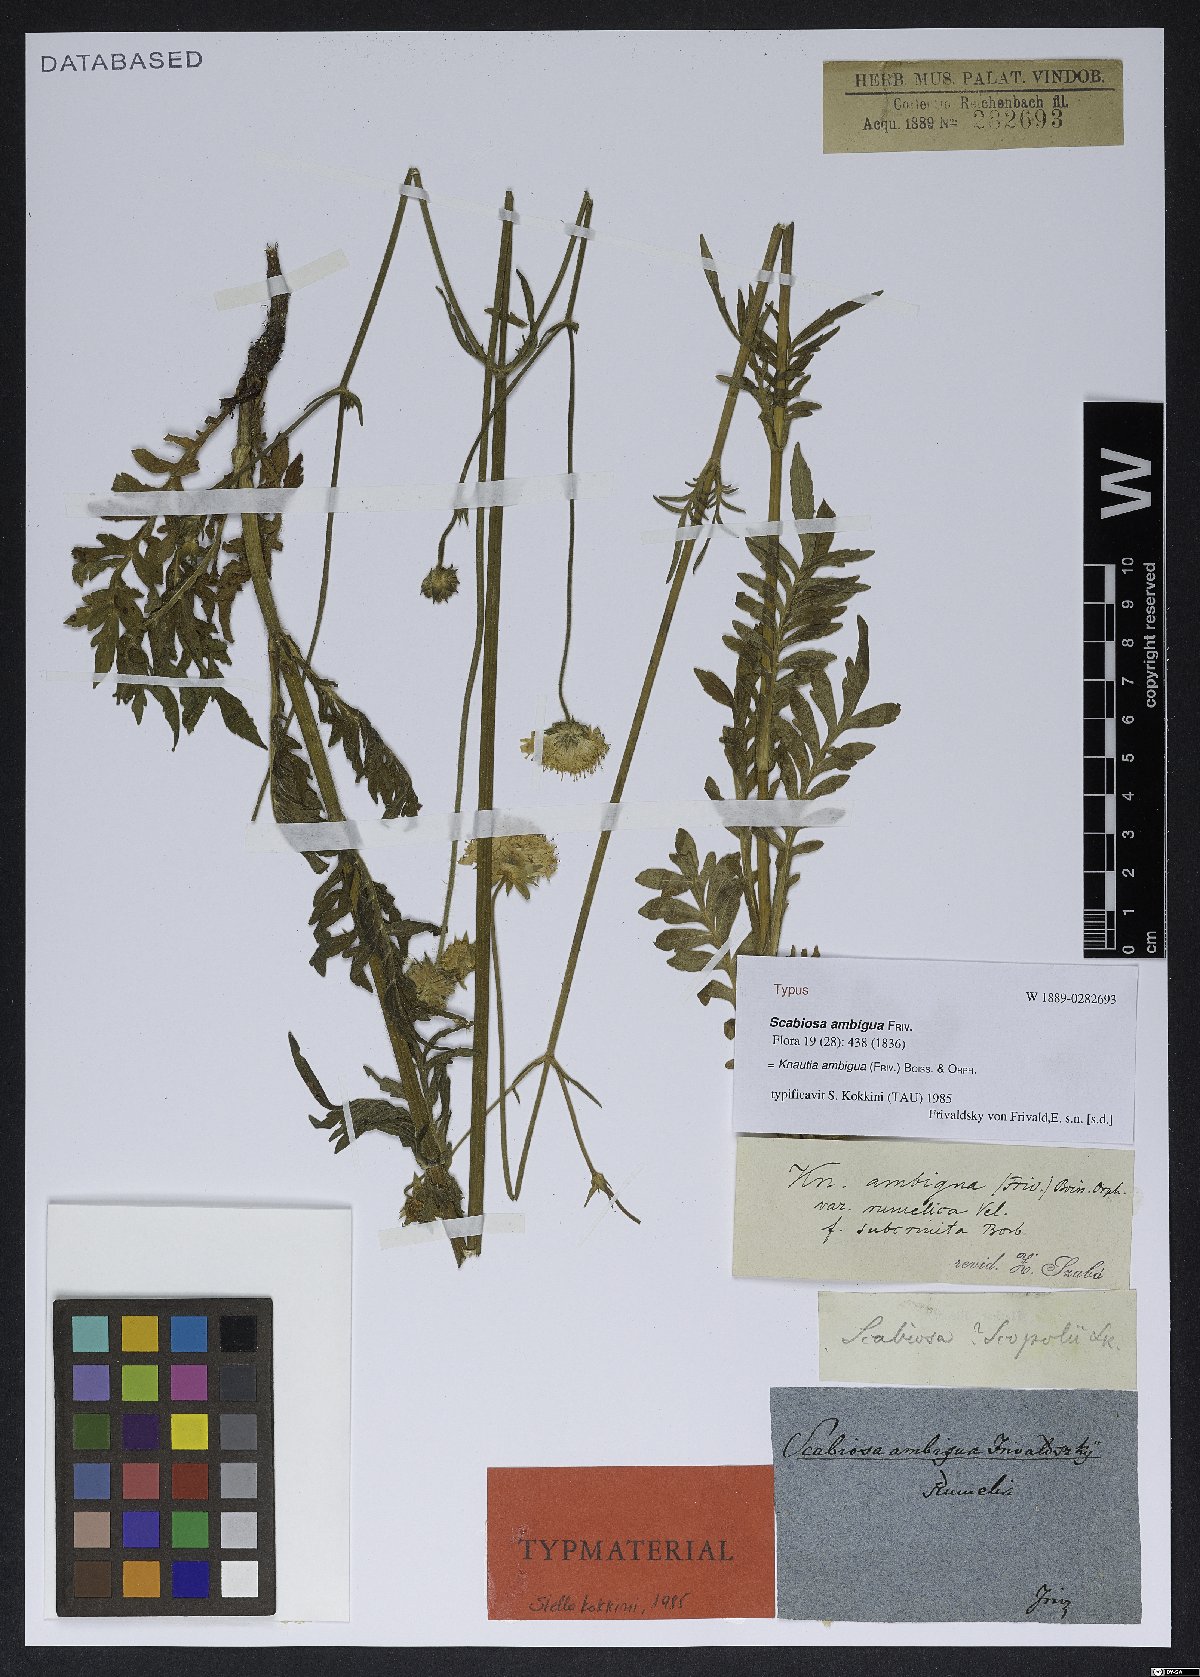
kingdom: Plantae
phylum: Tracheophyta
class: Magnoliopsida
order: Dipsacales
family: Caprifoliaceae
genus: Knautia
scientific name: Knautia ambigua
